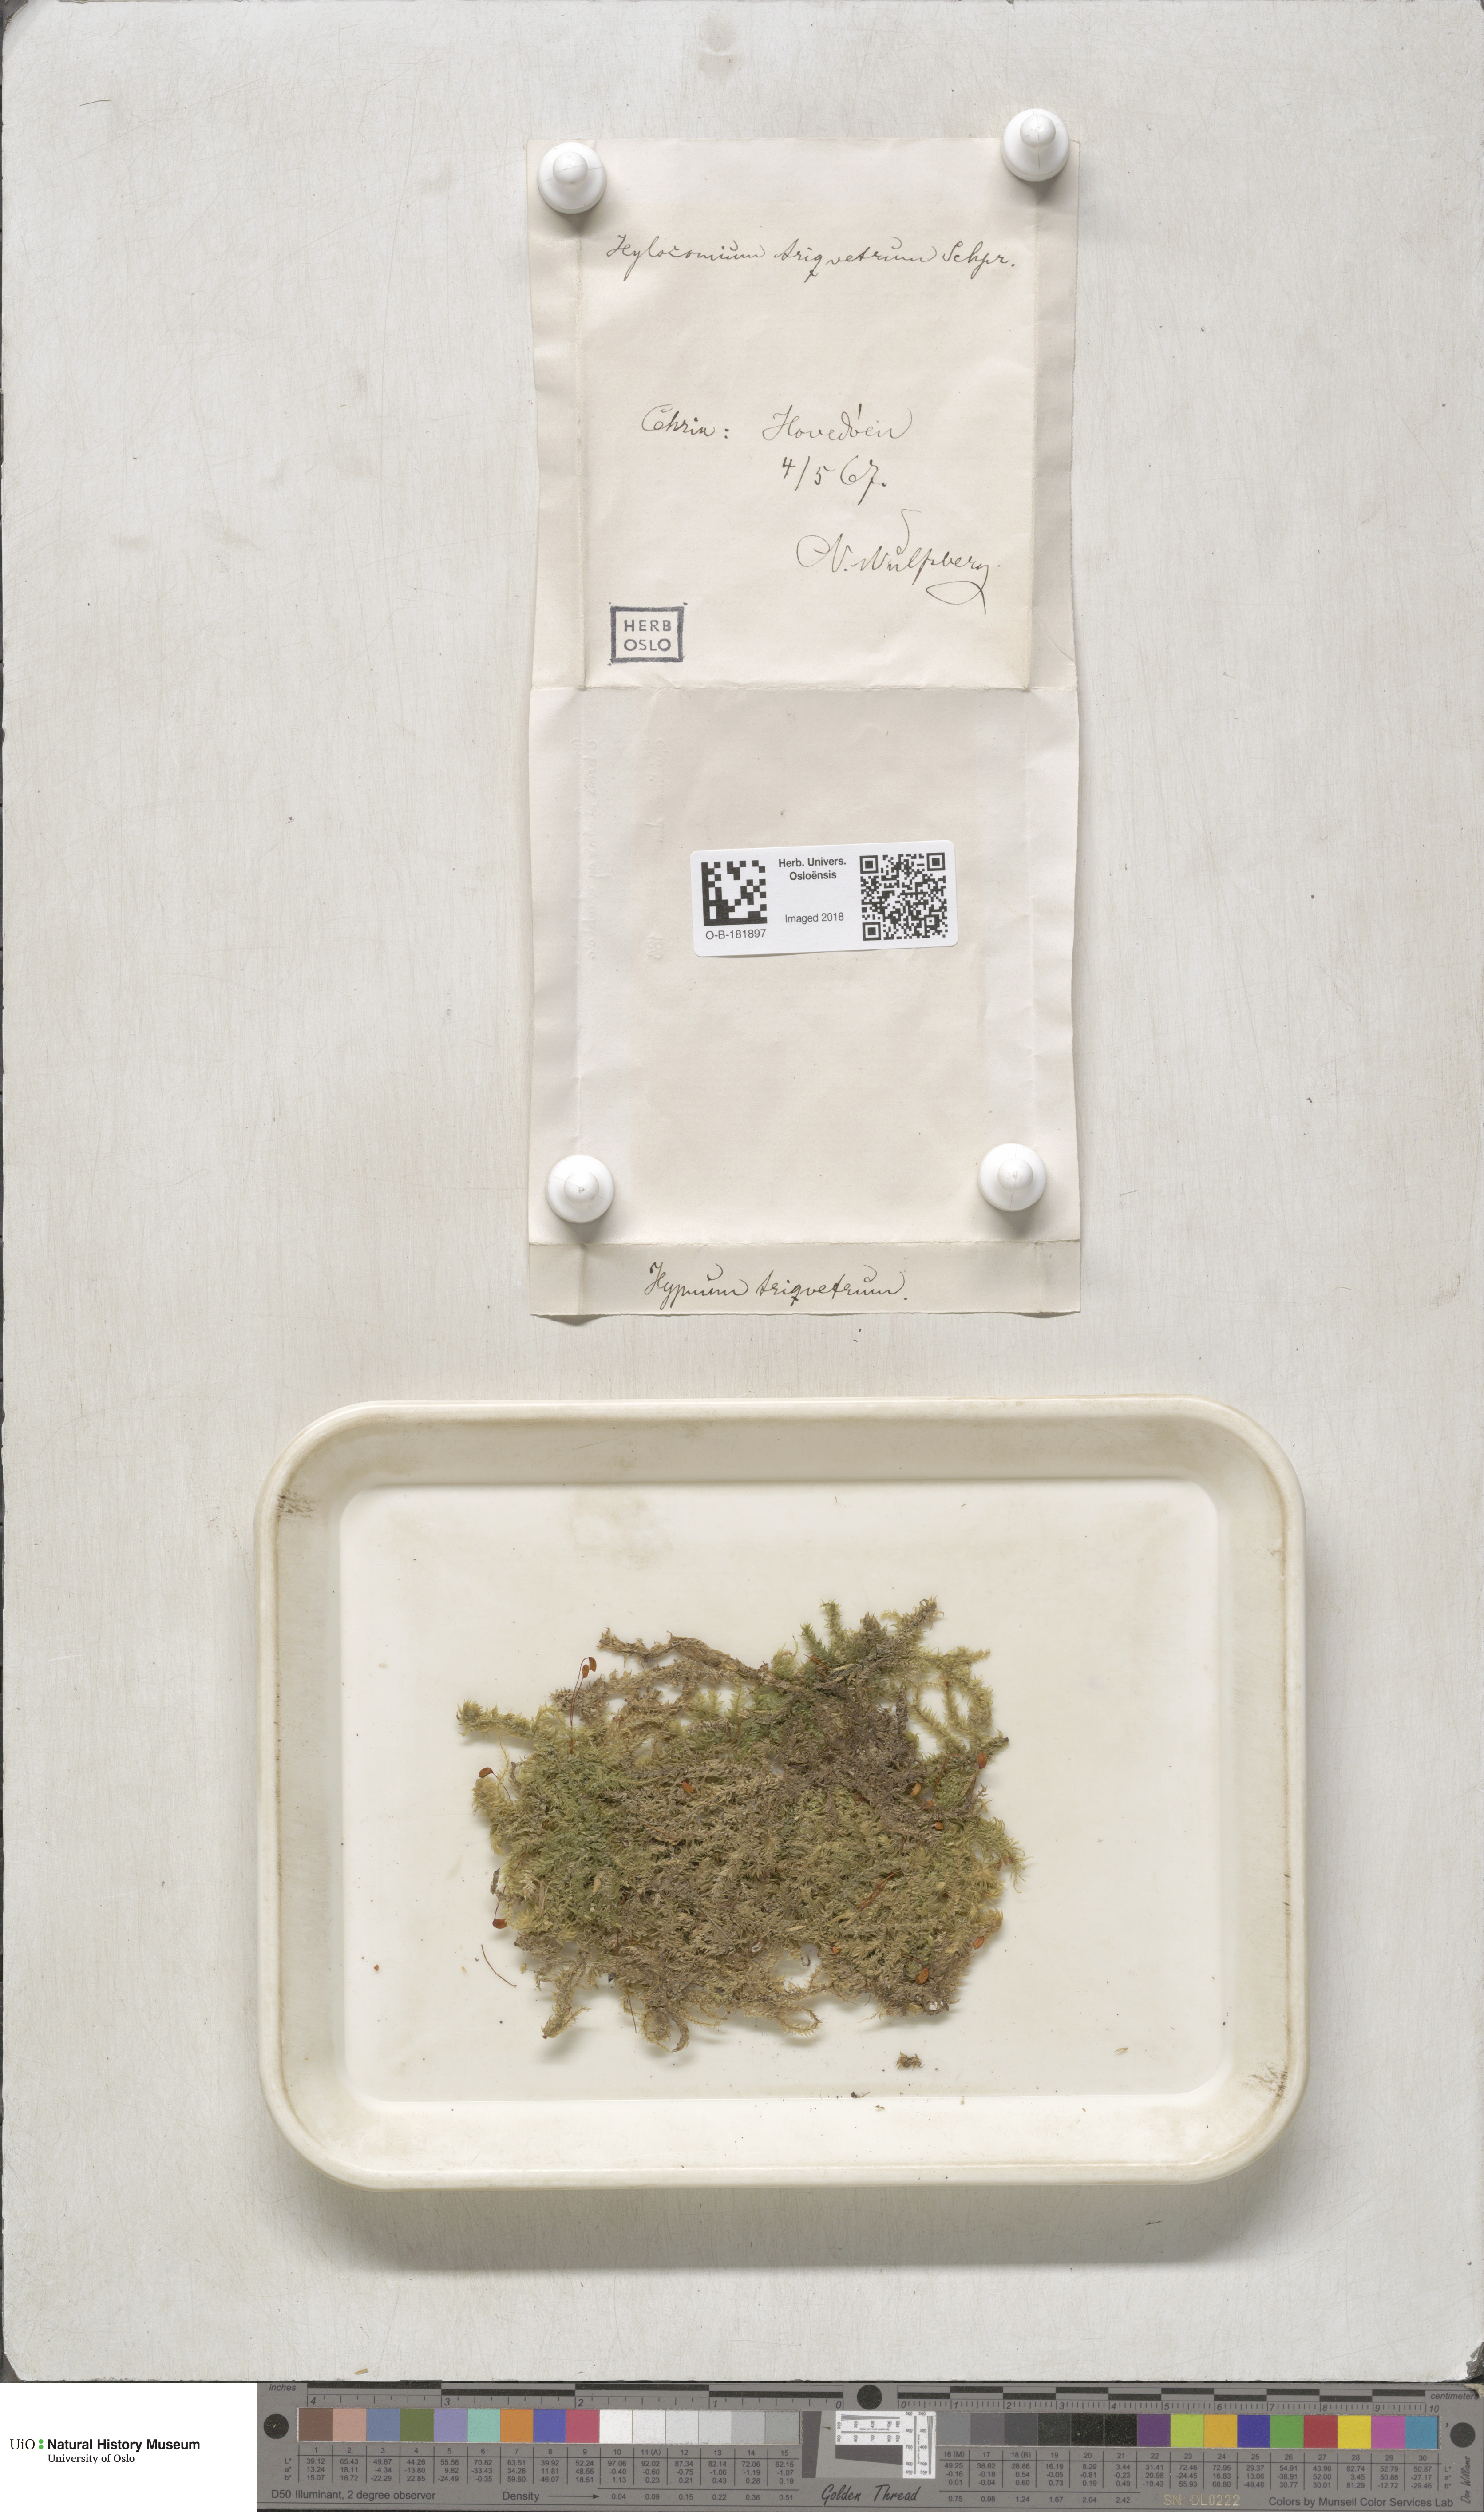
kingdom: Plantae
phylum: Bryophyta
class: Bryopsida
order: Hypnales
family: Hylocomiaceae
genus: Hylocomiadelphus
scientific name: Hylocomiadelphus triquetrus
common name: Rough goose neck moss
